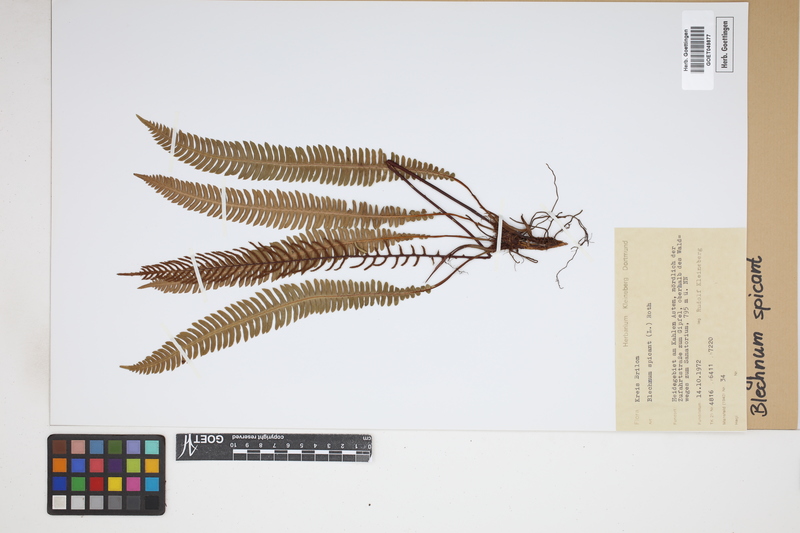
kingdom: Plantae
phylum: Tracheophyta
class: Polypodiopsida
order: Polypodiales
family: Blechnaceae
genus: Struthiopteris
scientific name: Struthiopteris spicant
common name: Deer fern
